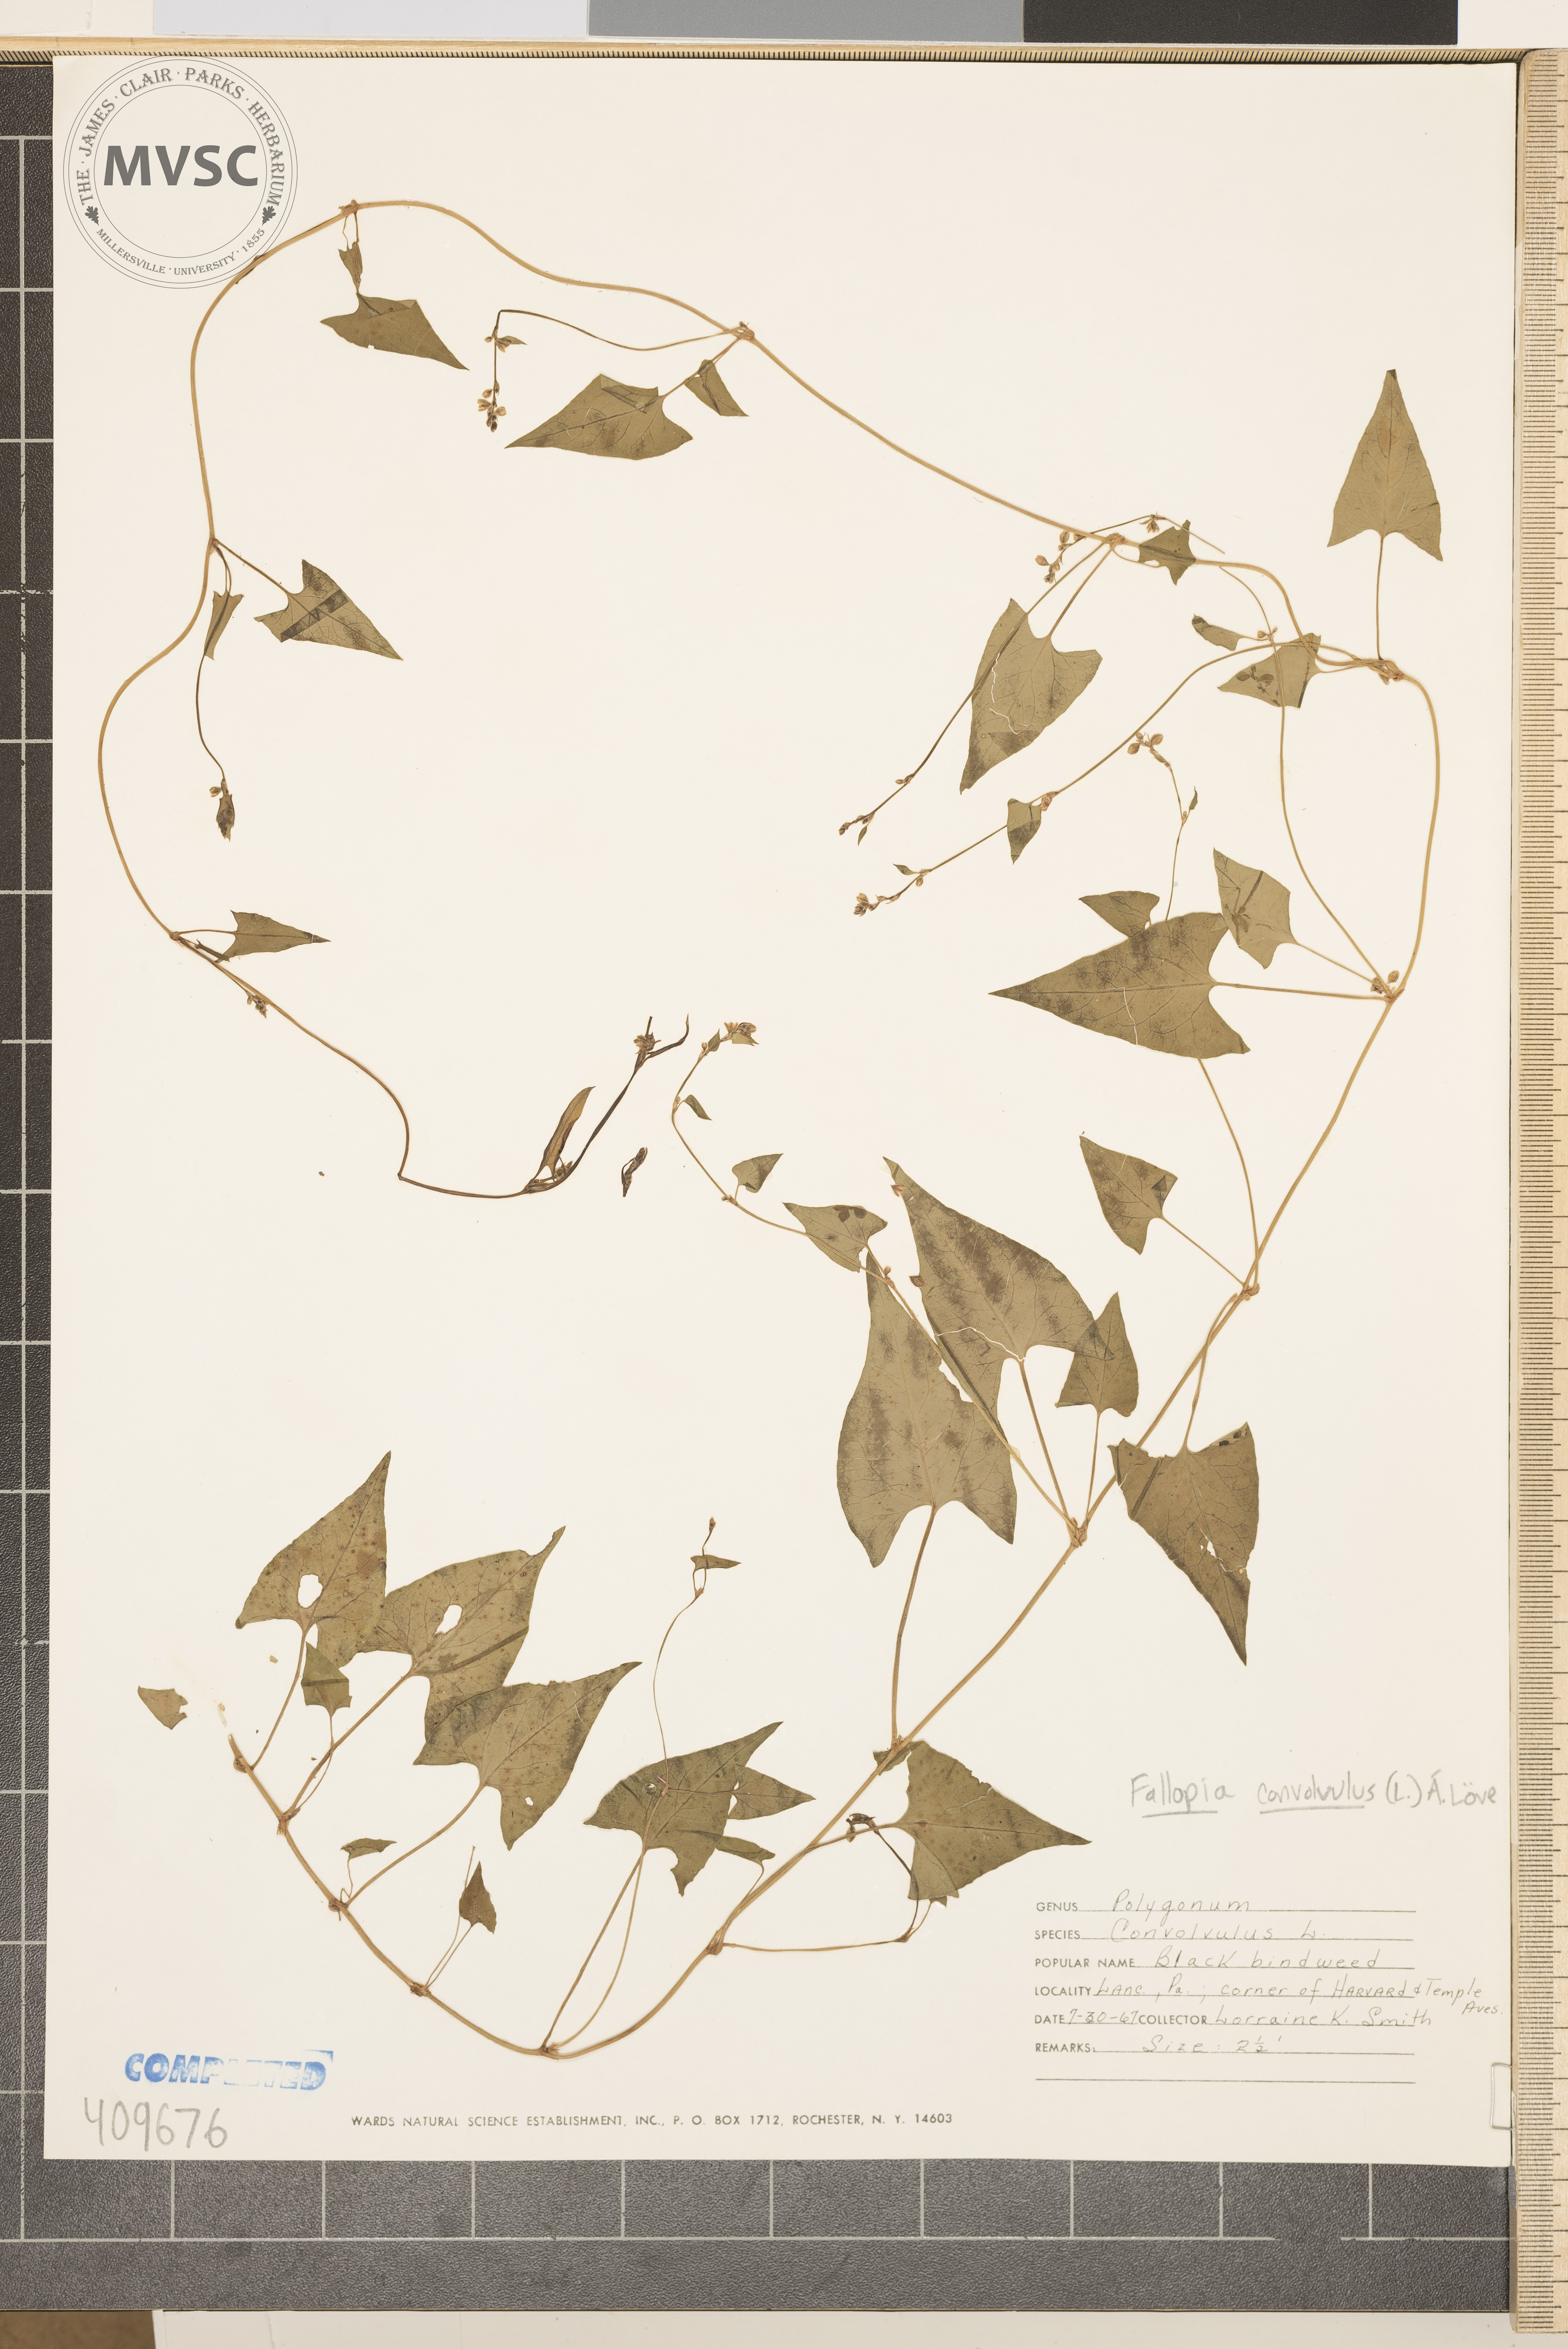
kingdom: Plantae
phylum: Tracheophyta
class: Magnoliopsida
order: Caryophyllales
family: Polygonaceae
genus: Fallopia
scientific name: Fallopia convolvulus
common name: Black bindweed
